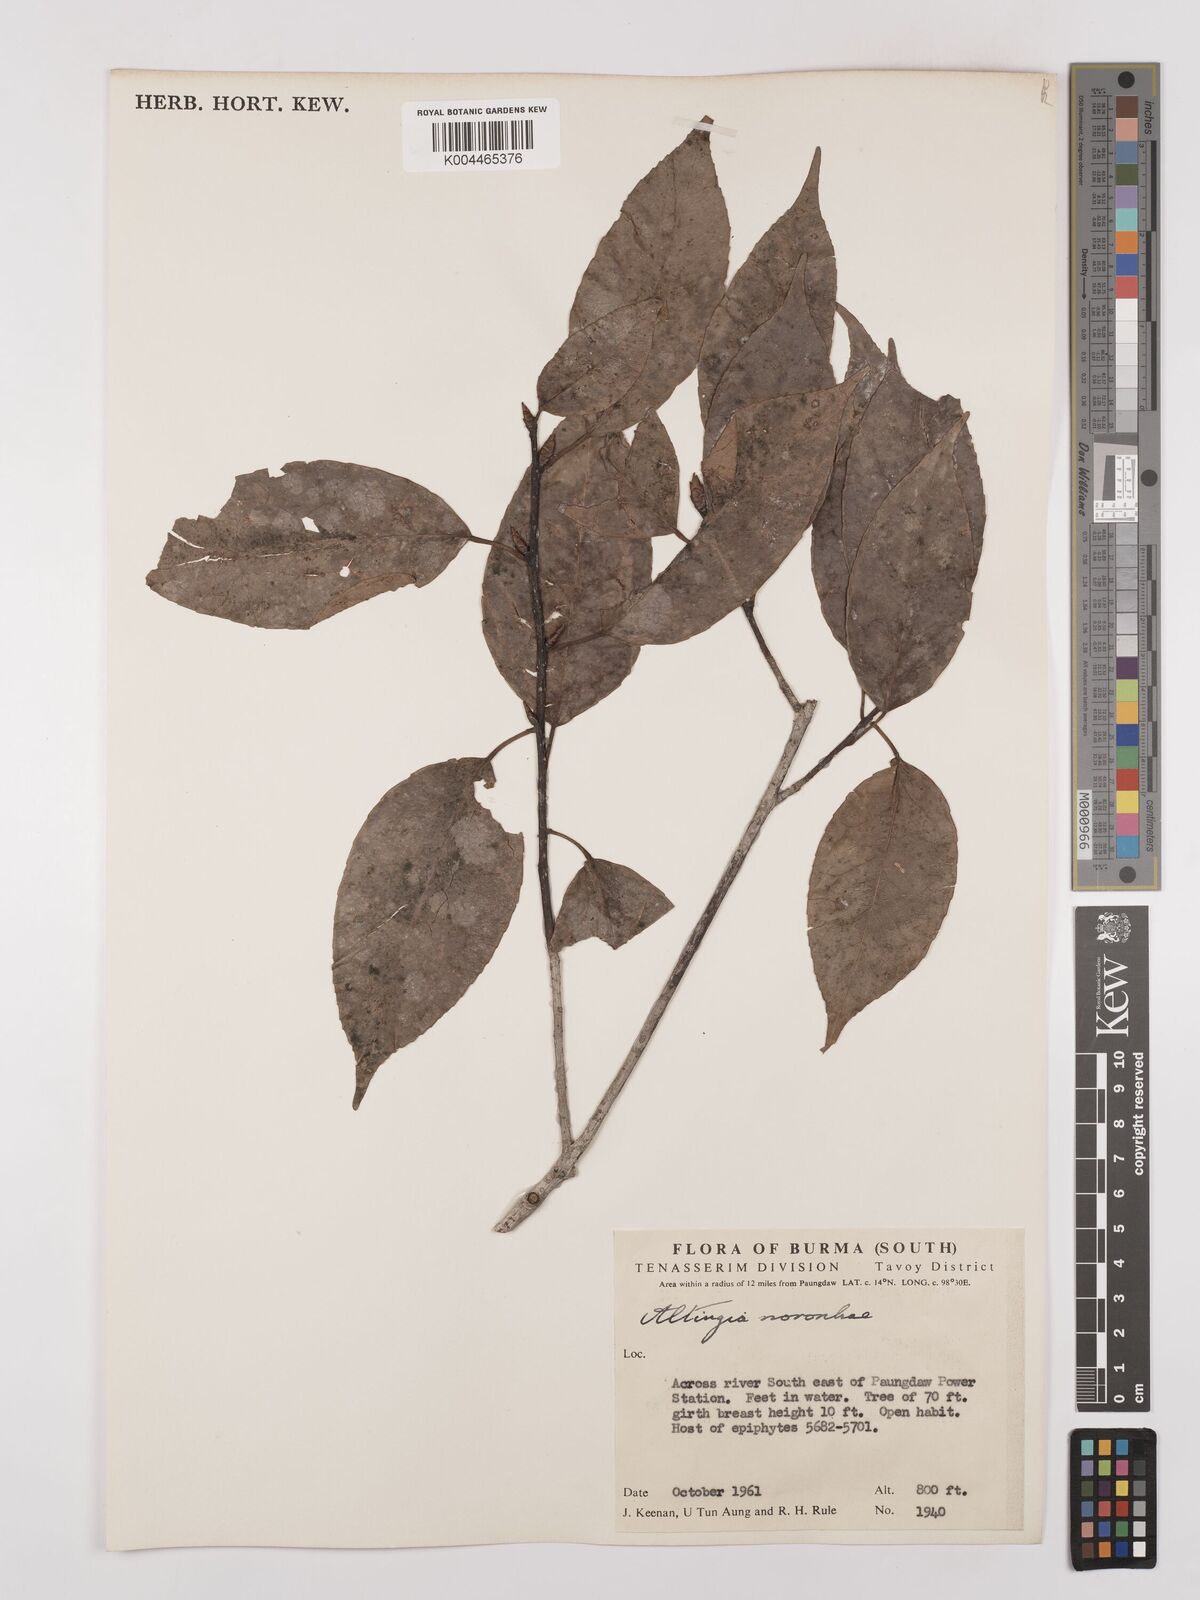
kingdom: Plantae
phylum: Tracheophyta
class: Magnoliopsida
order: Saxifragales
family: Altingiaceae
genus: Liquidambar
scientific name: Liquidambar
